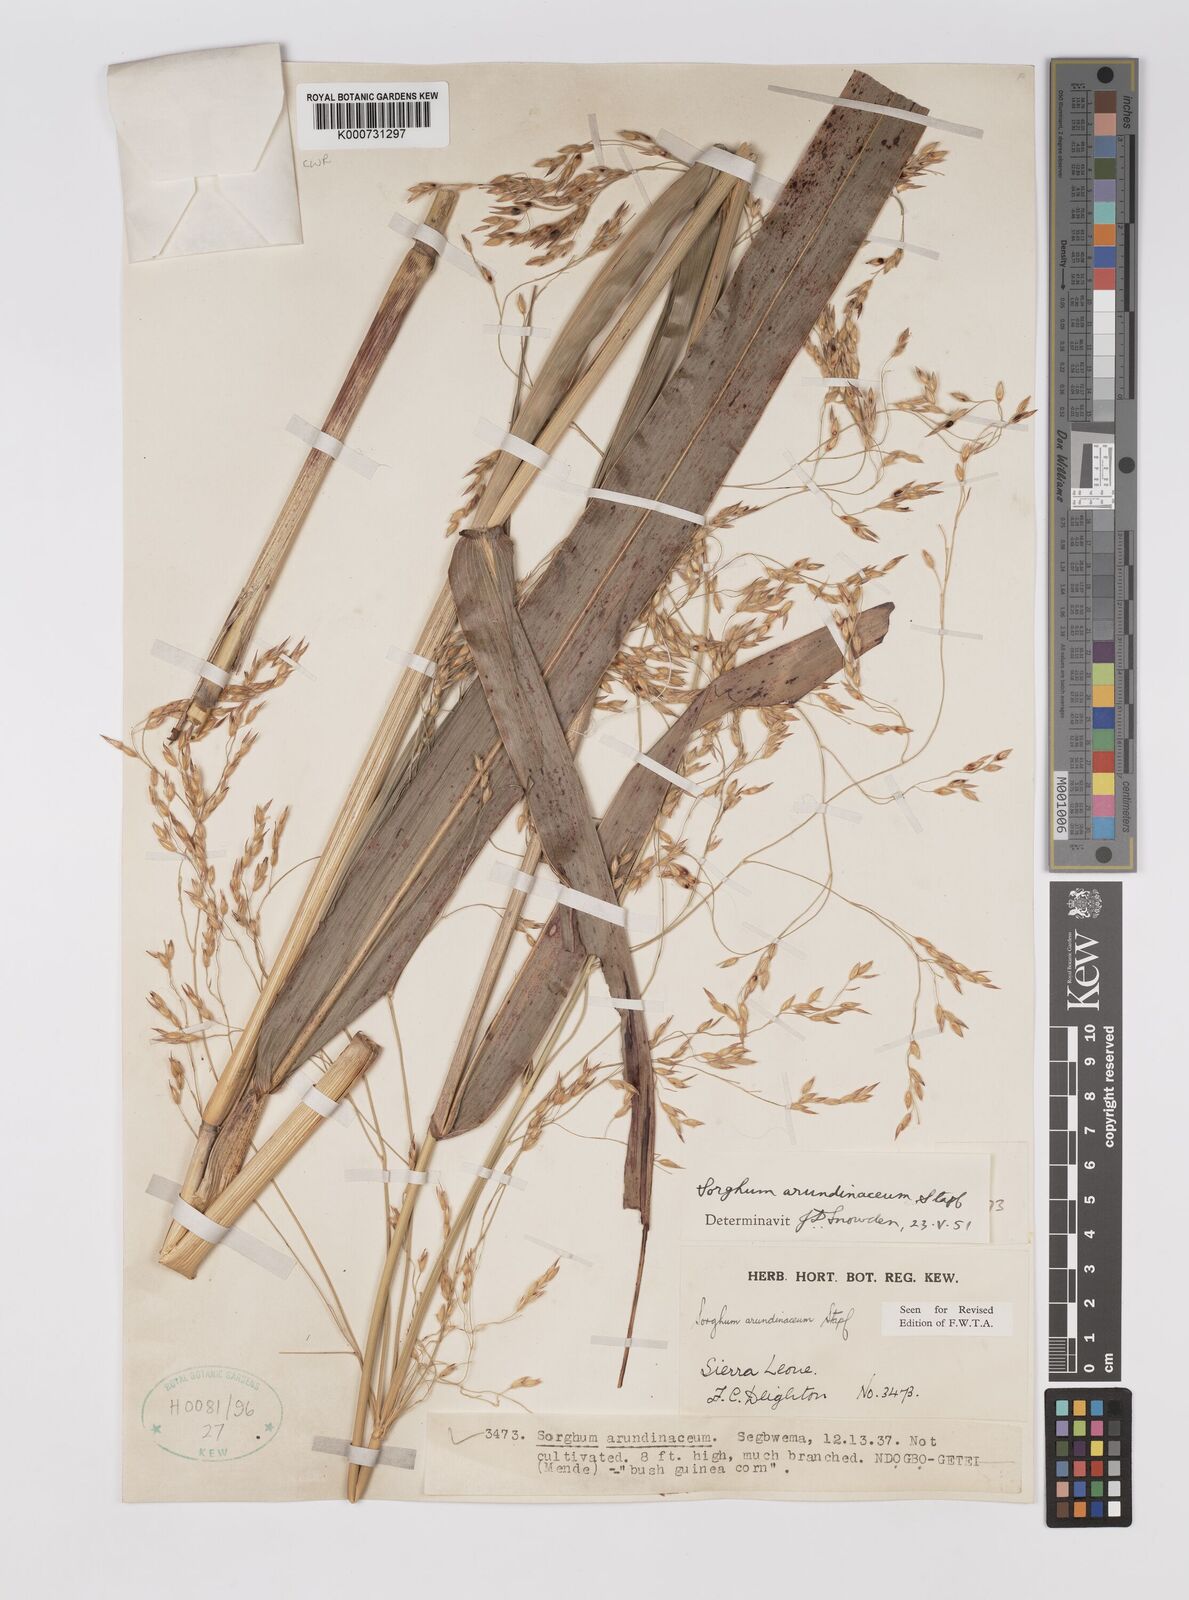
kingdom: Plantae
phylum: Tracheophyta
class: Liliopsida
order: Poales
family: Poaceae
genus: Sorghum
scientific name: Sorghum arundinaceum
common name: Sorghum
